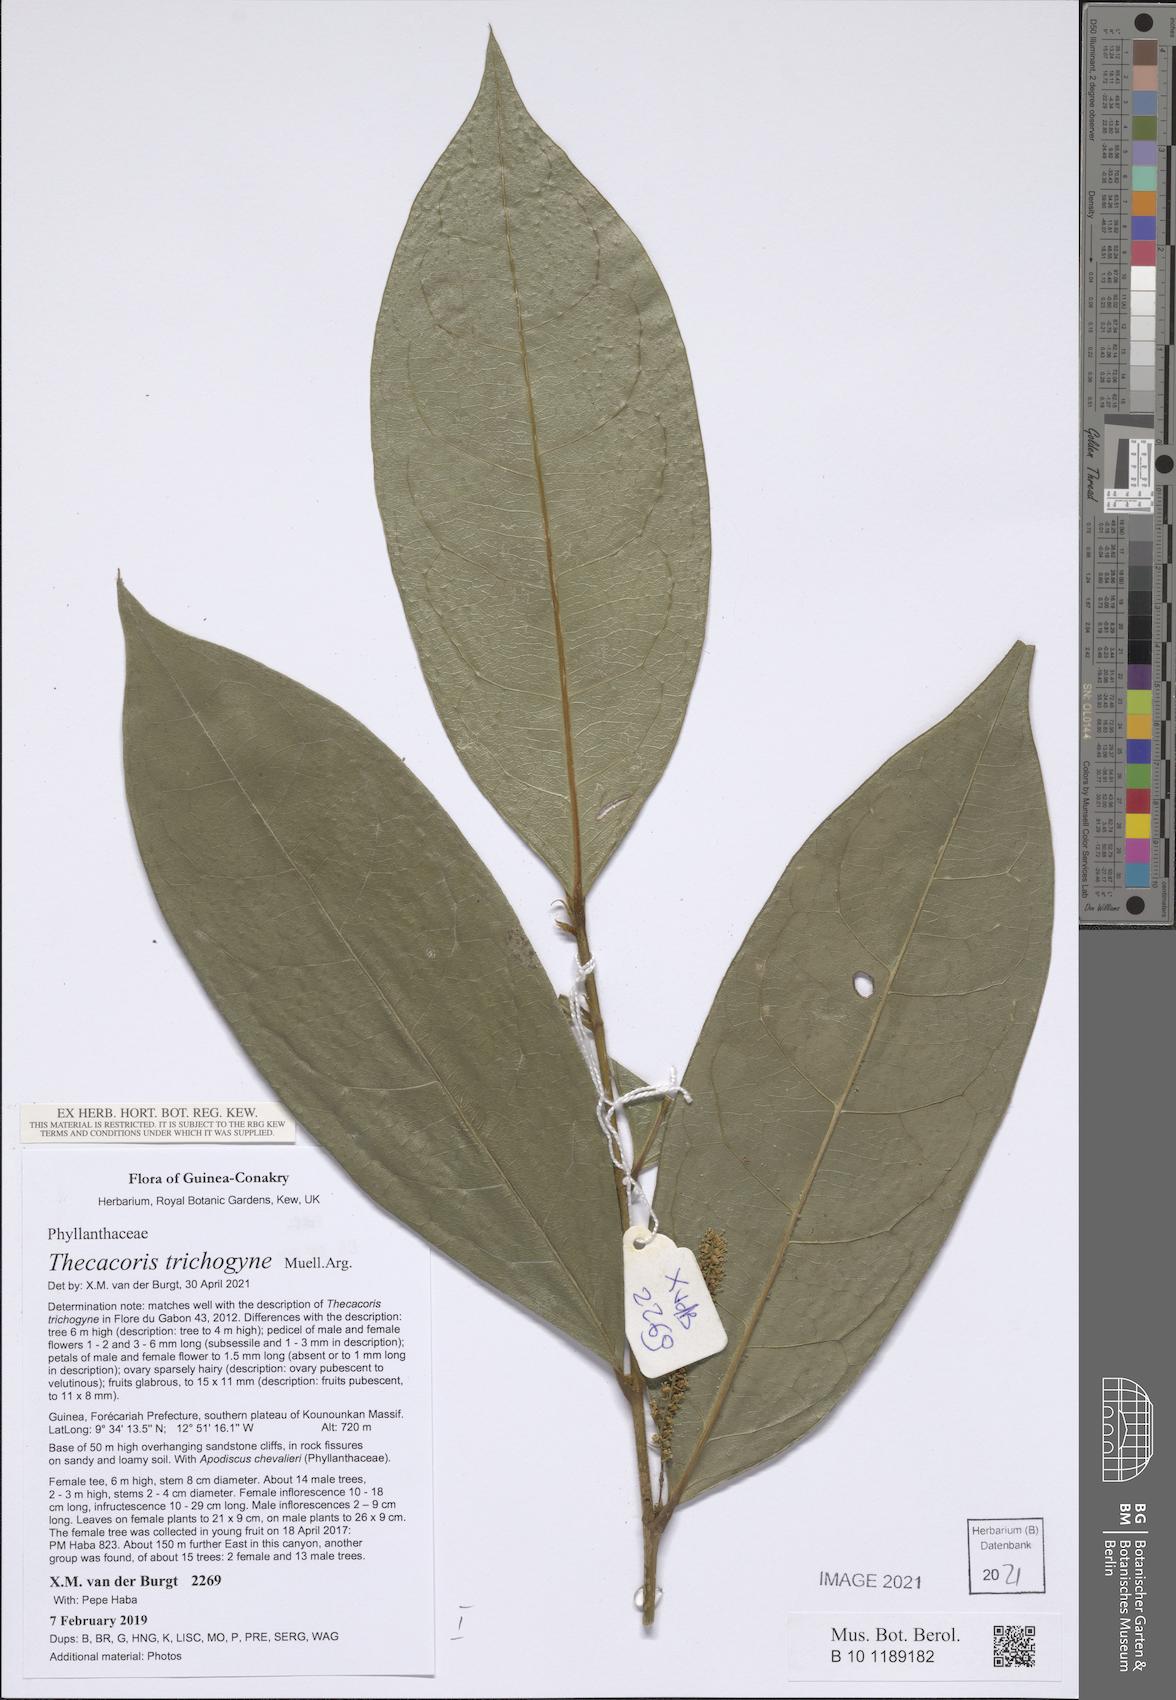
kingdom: Plantae
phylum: Tracheophyta
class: Magnoliopsida
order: Malpighiales
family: Phyllanthaceae
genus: Thecacoris
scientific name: Thecacoris trichogyne
